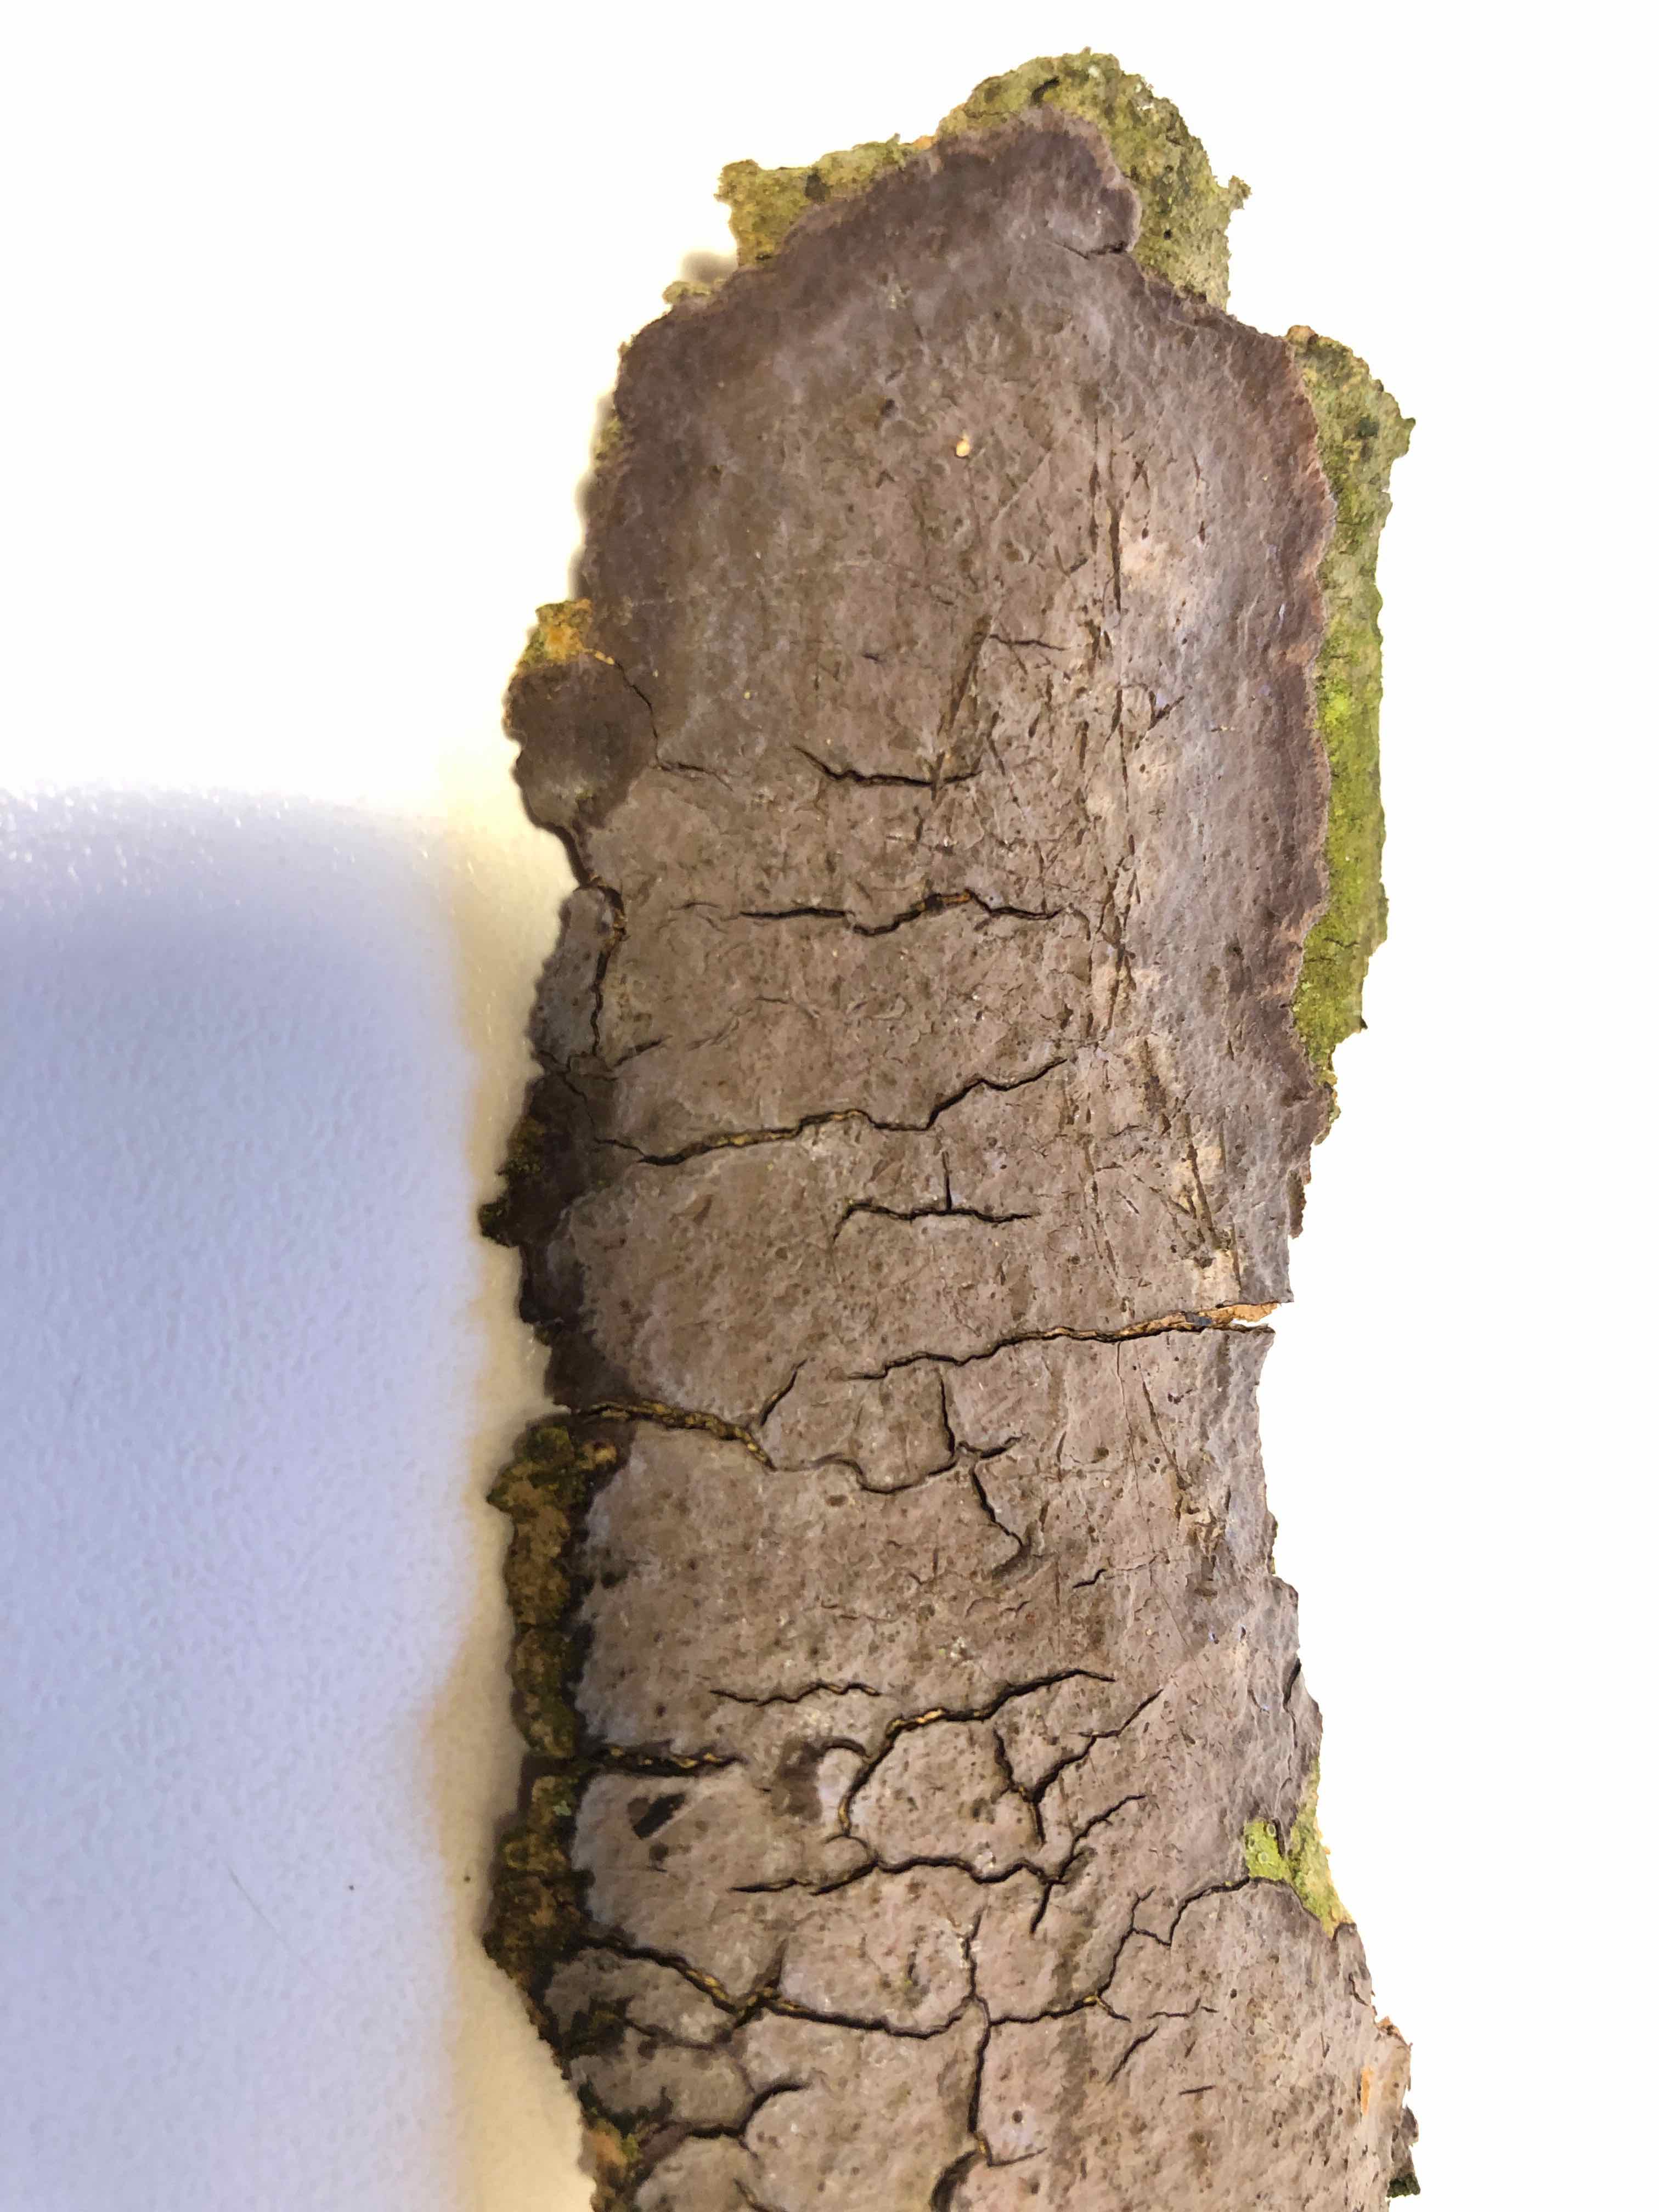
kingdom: Fungi
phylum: Basidiomycota
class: Agaricomycetes
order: Russulales
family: Peniophoraceae
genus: Peniophora
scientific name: Peniophora
